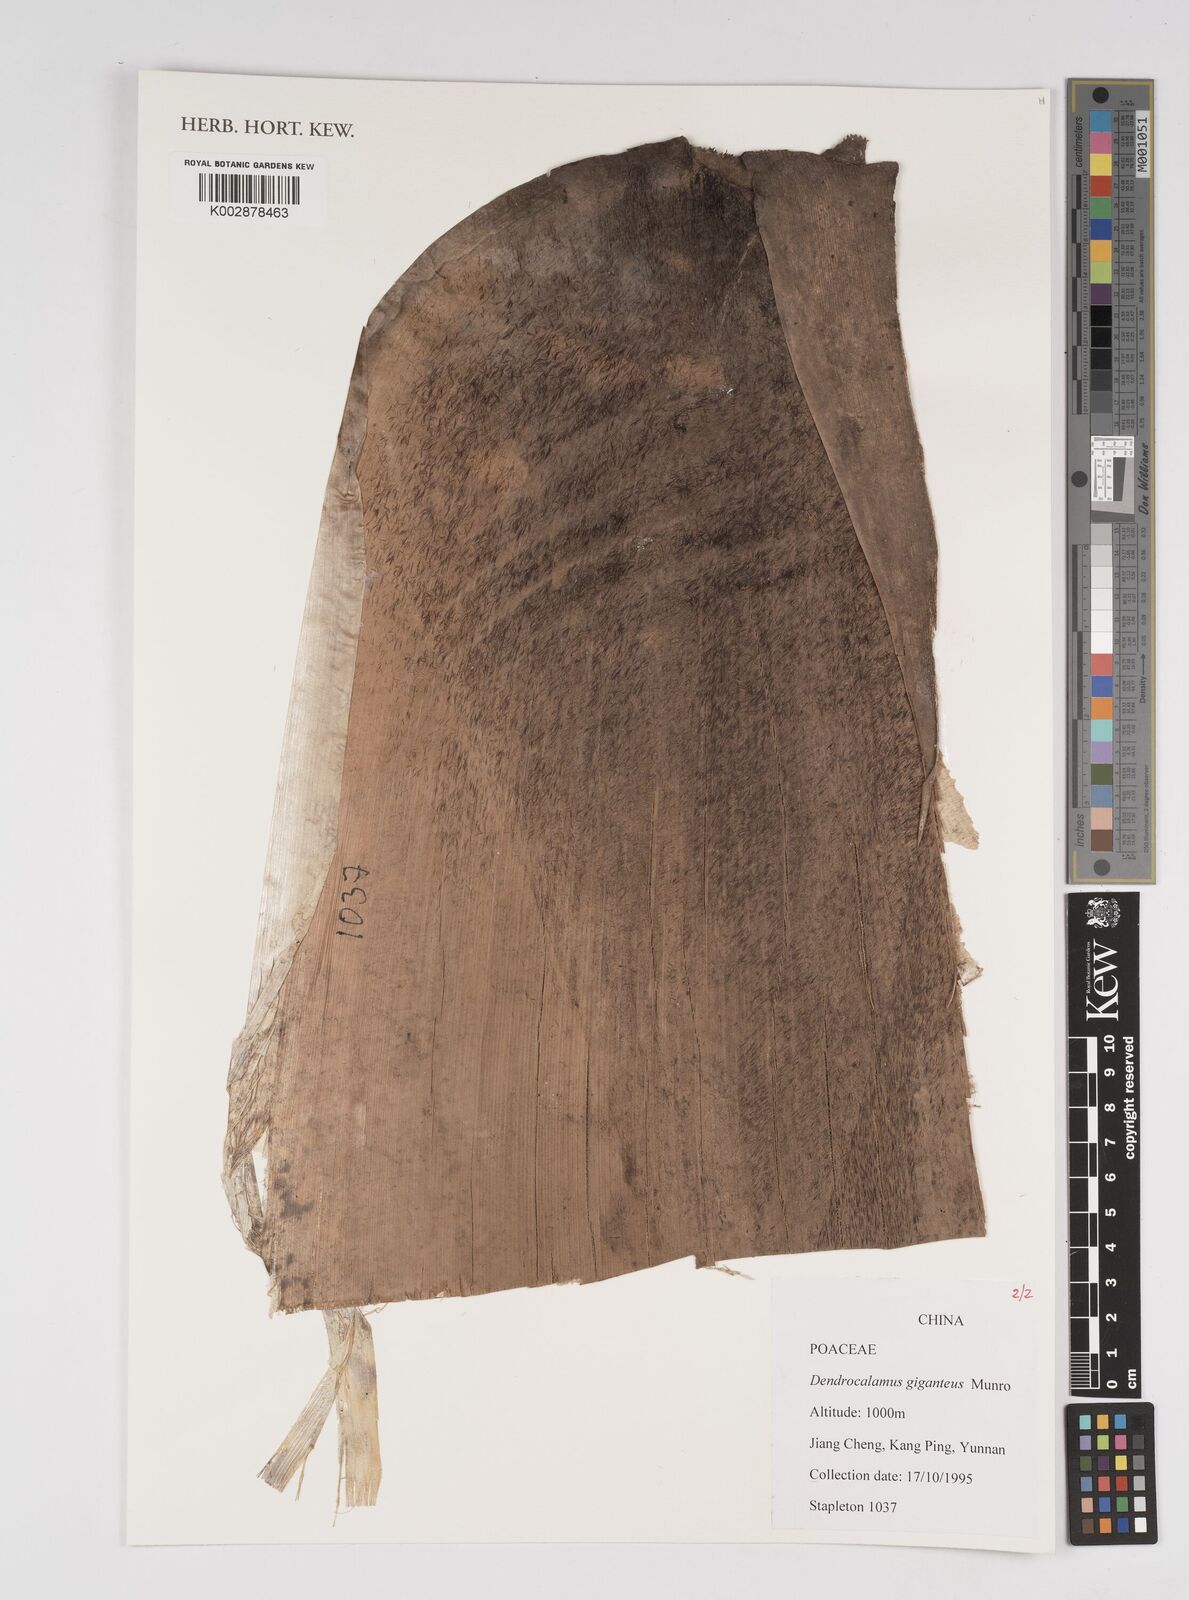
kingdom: Plantae
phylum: Tracheophyta
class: Liliopsida
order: Poales
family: Poaceae
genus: Dendrocalamus
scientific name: Dendrocalamus giganteus
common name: Giant bamboo
